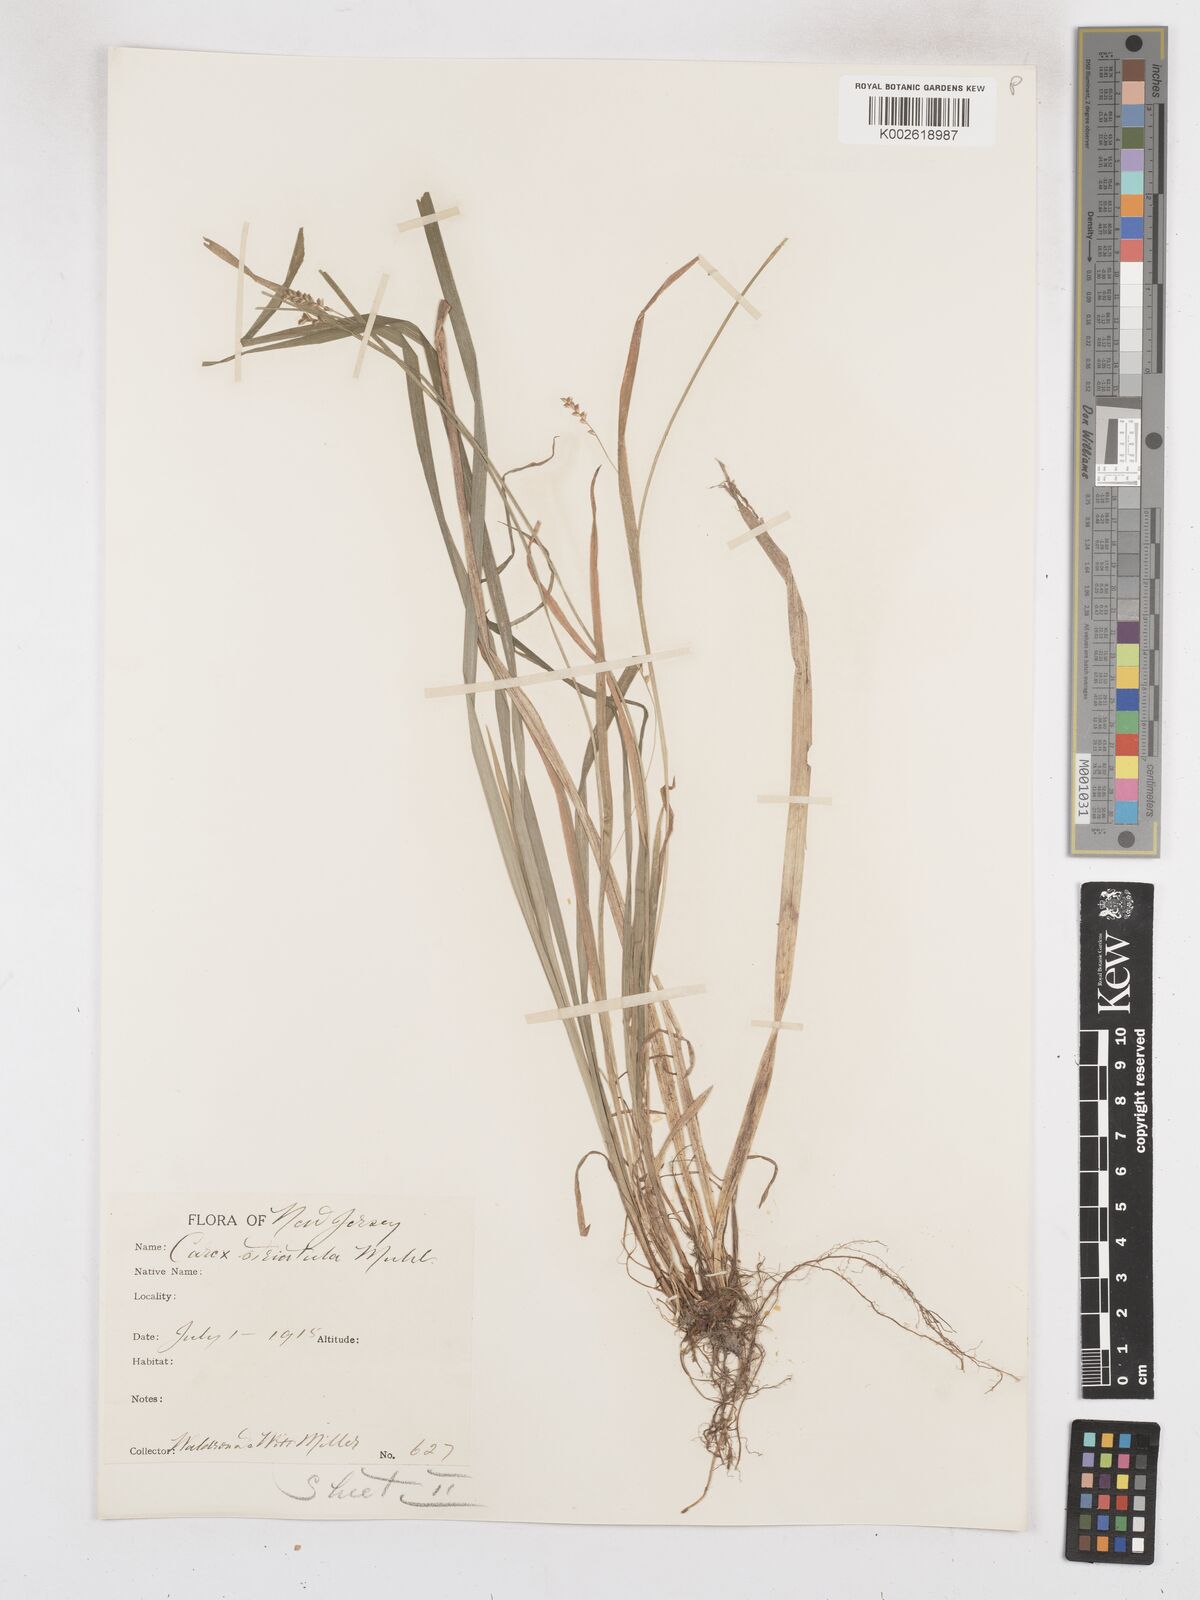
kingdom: Plantae
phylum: Tracheophyta
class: Liliopsida
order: Poales
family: Cyperaceae
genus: Carex
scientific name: Carex striatula
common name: Lined sedge
